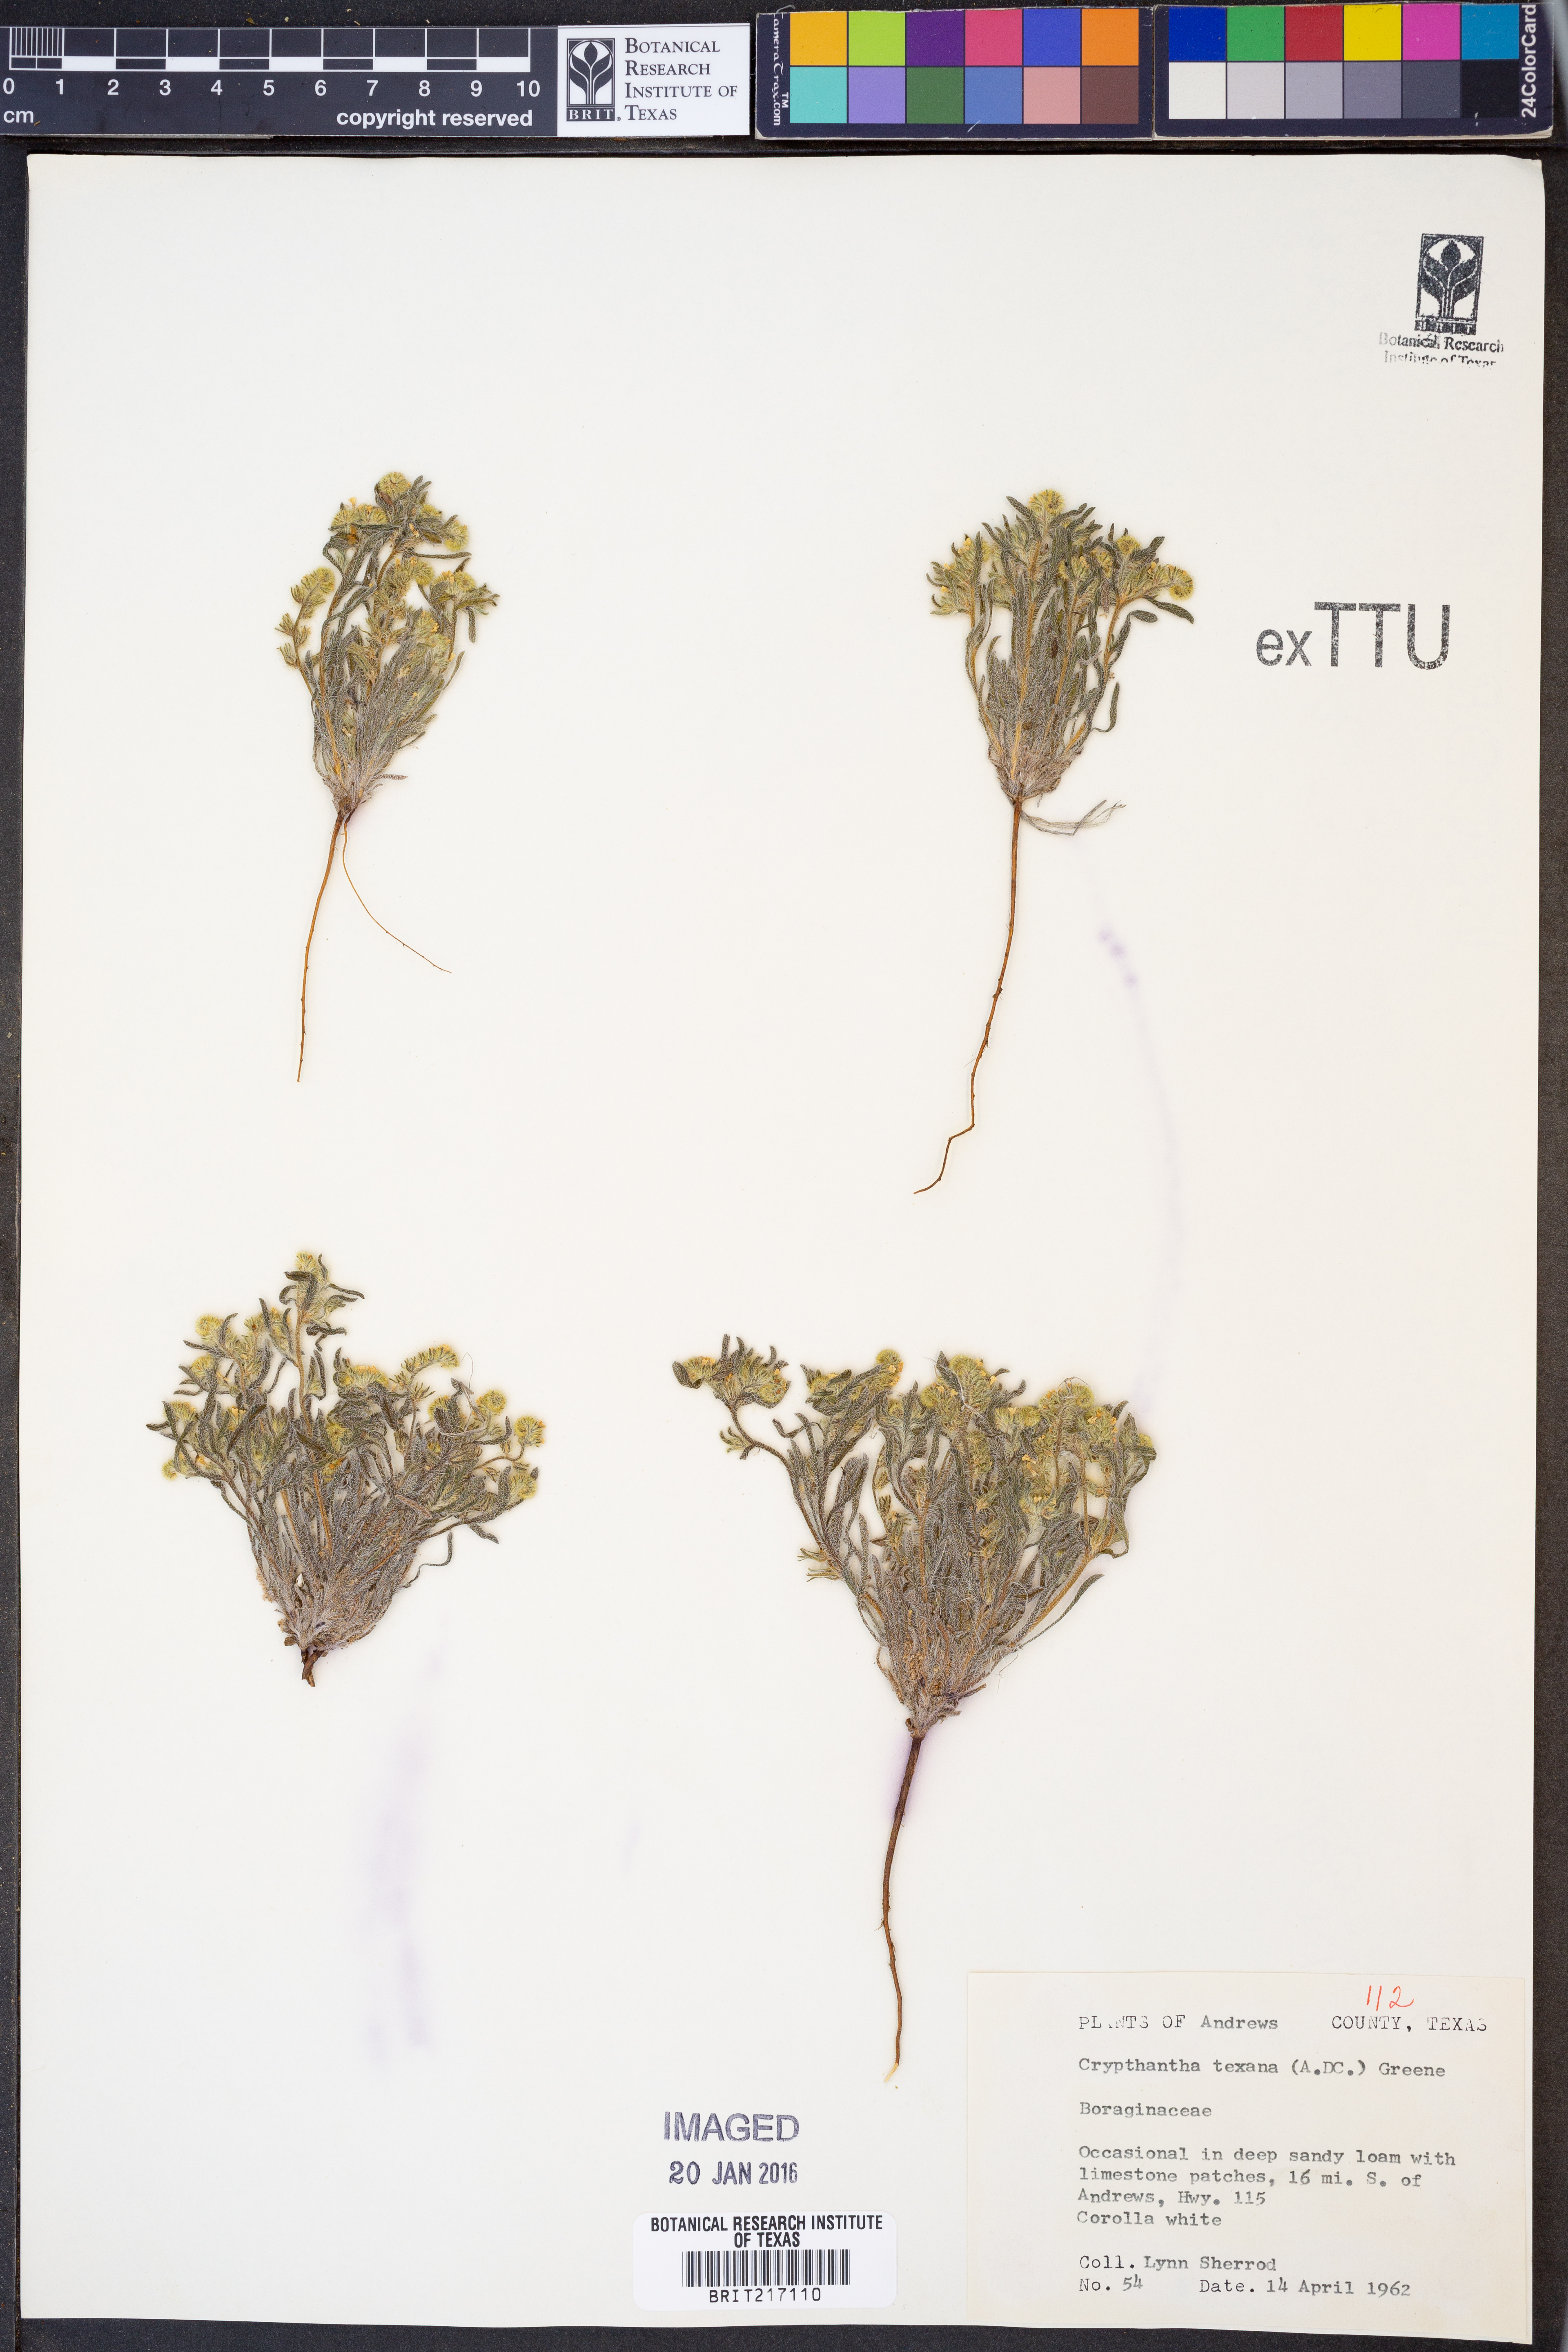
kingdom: Plantae
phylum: Tracheophyta
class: Magnoliopsida
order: Boraginales
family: Boraginaceae
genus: Cryptantha
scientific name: Cryptantha texana
